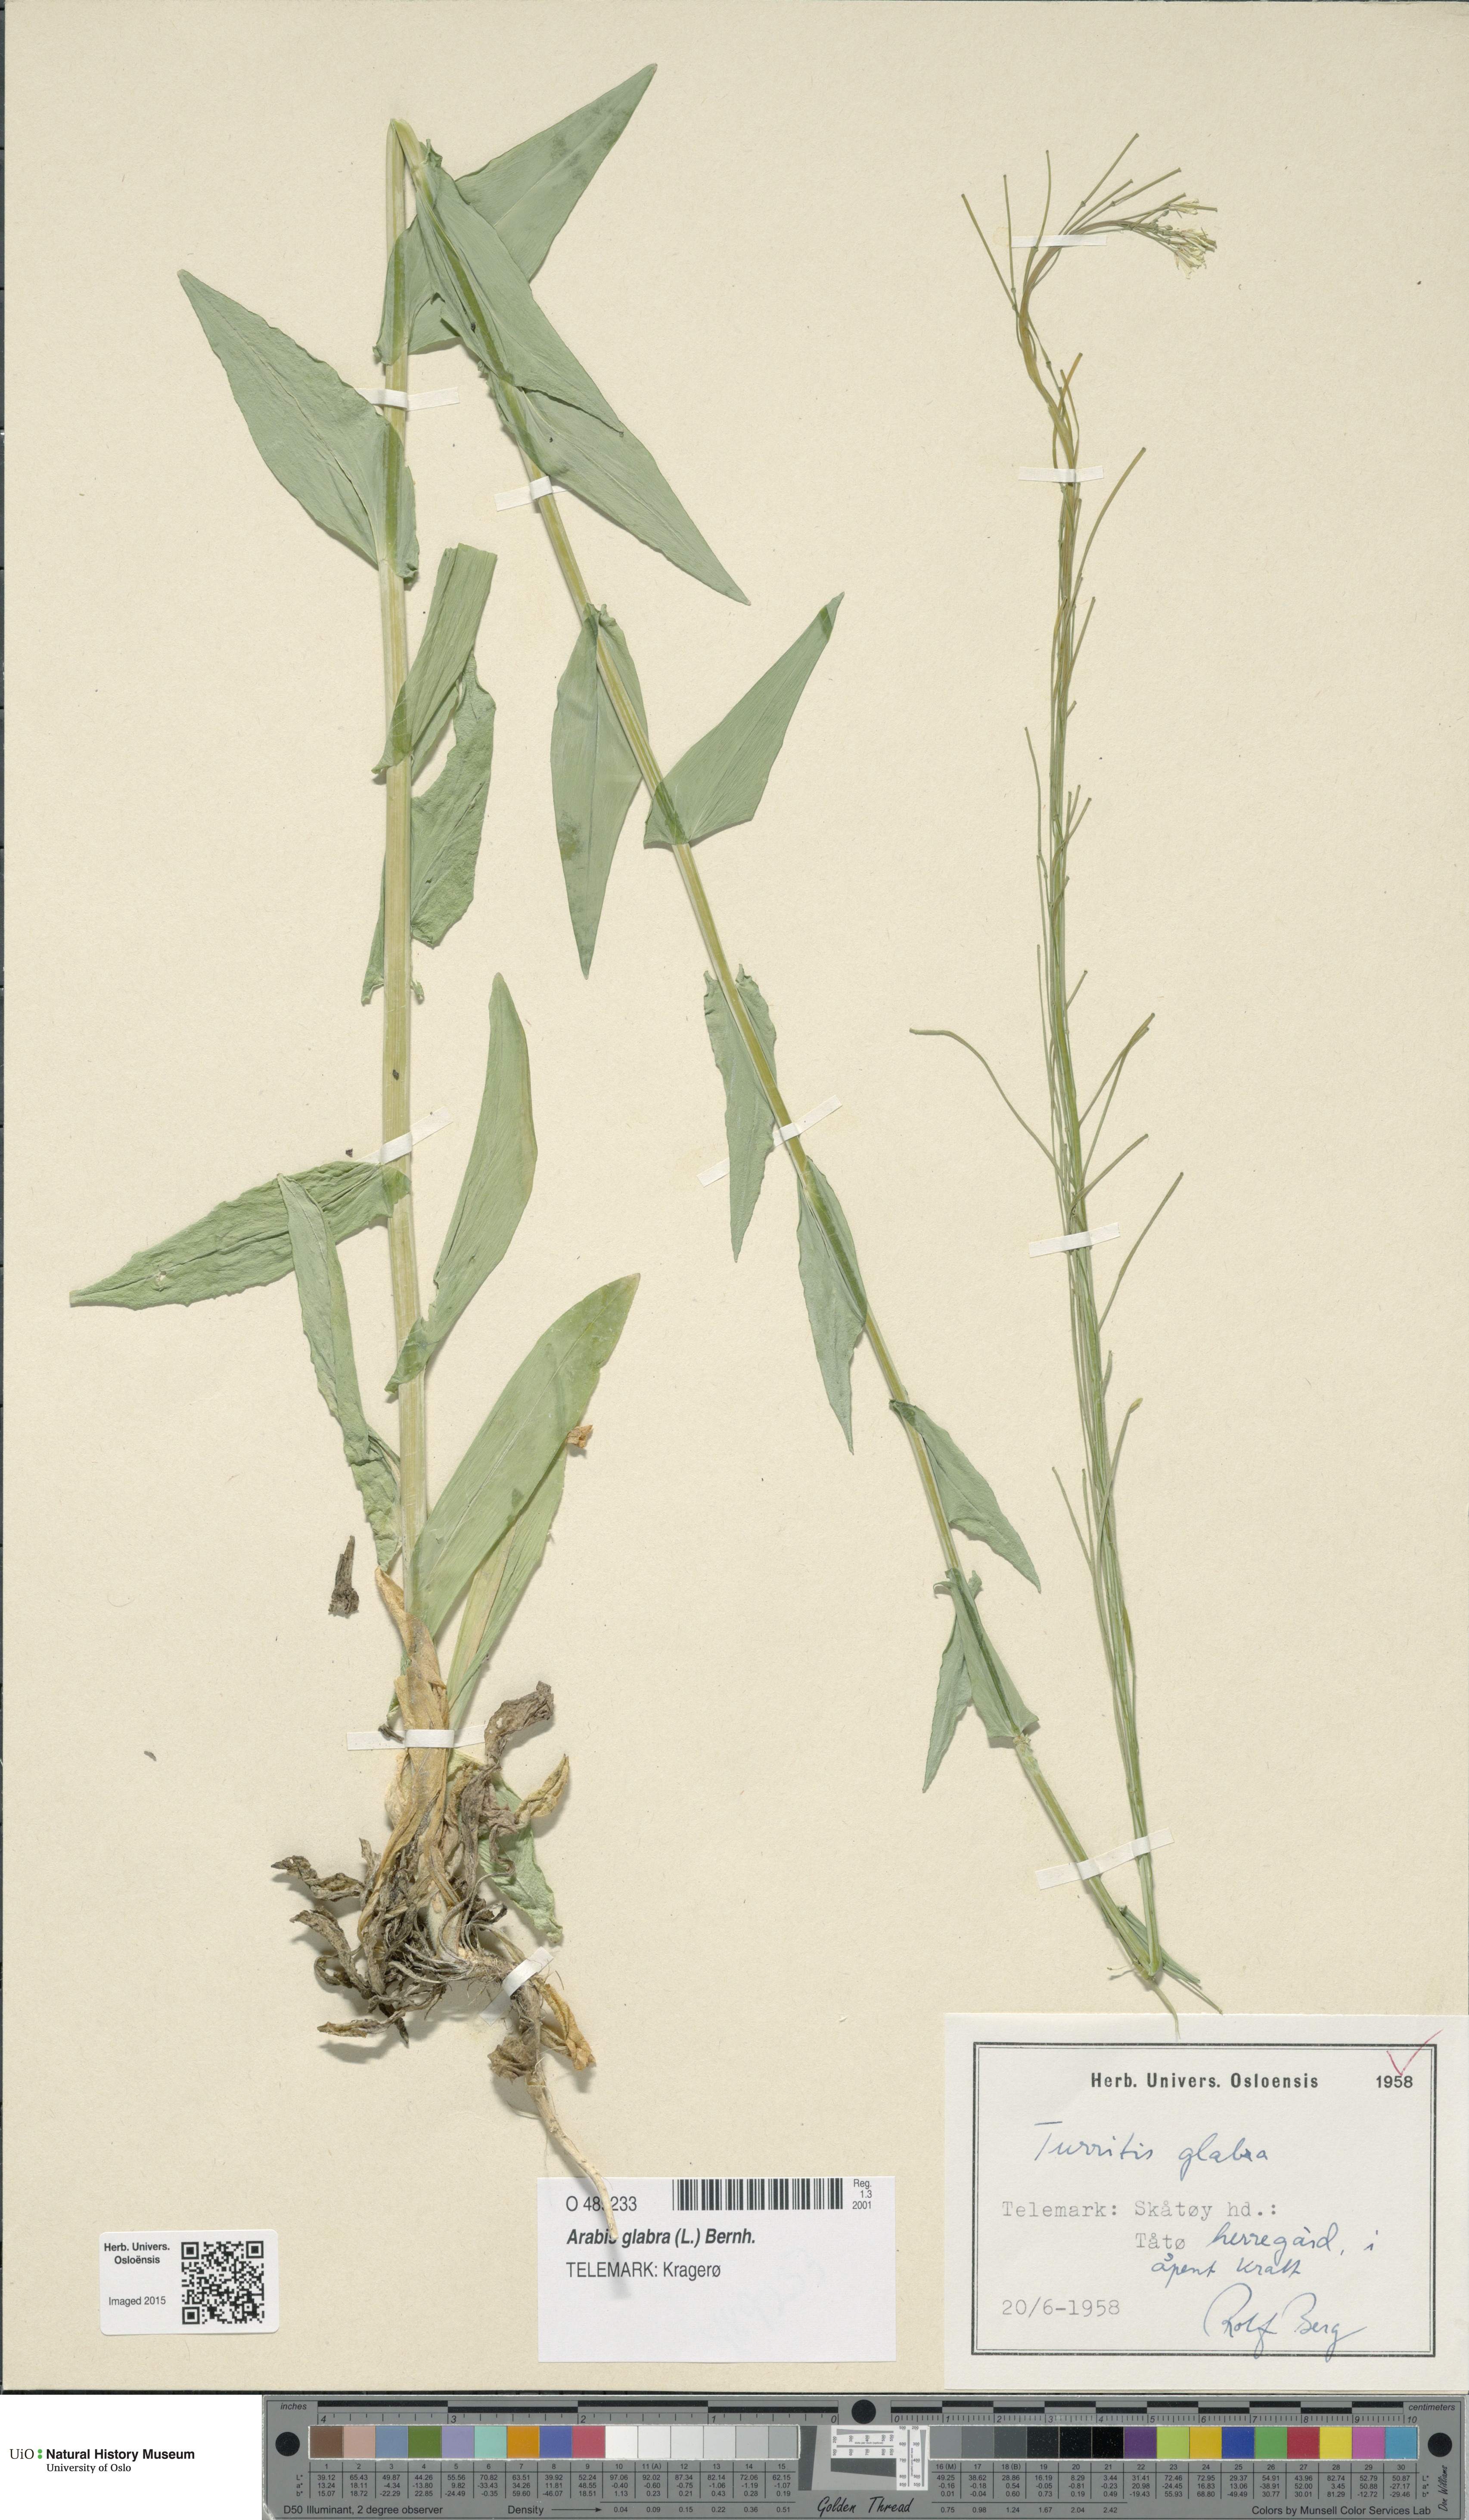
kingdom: Plantae
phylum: Tracheophyta
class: Magnoliopsida
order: Brassicales
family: Brassicaceae
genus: Turritis
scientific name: Turritis glabra
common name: Tower rockcress
